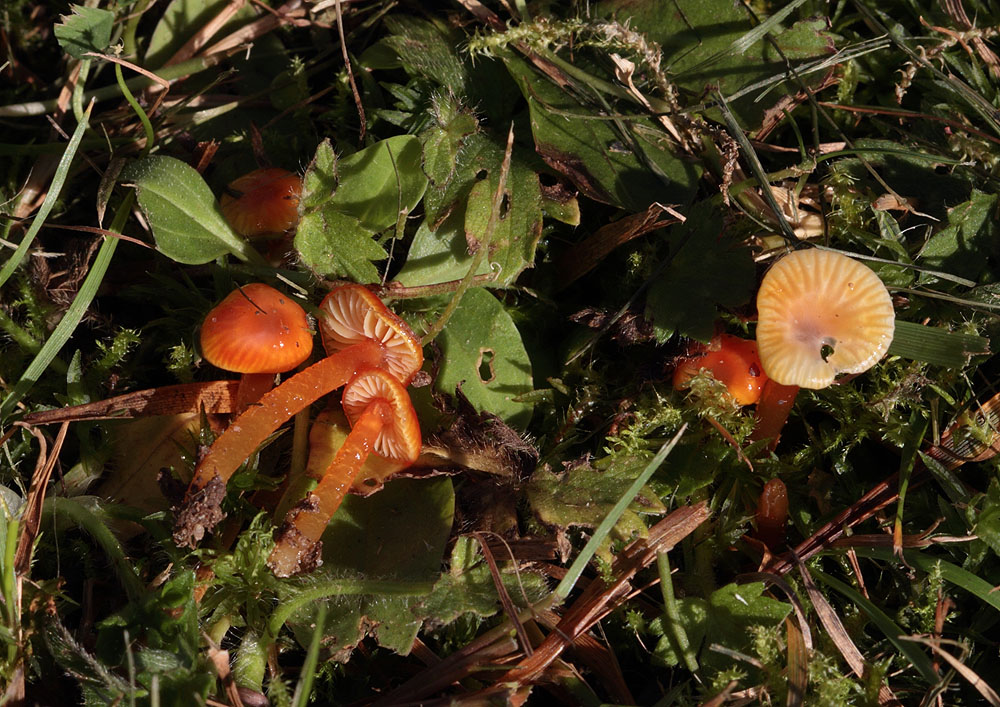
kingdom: Fungi
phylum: Basidiomycota
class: Agaricomycetes
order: Agaricales
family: Hygrophoraceae
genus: Hygrocybe
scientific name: Hygrocybe glutinipes
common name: slimstokket vokshat
